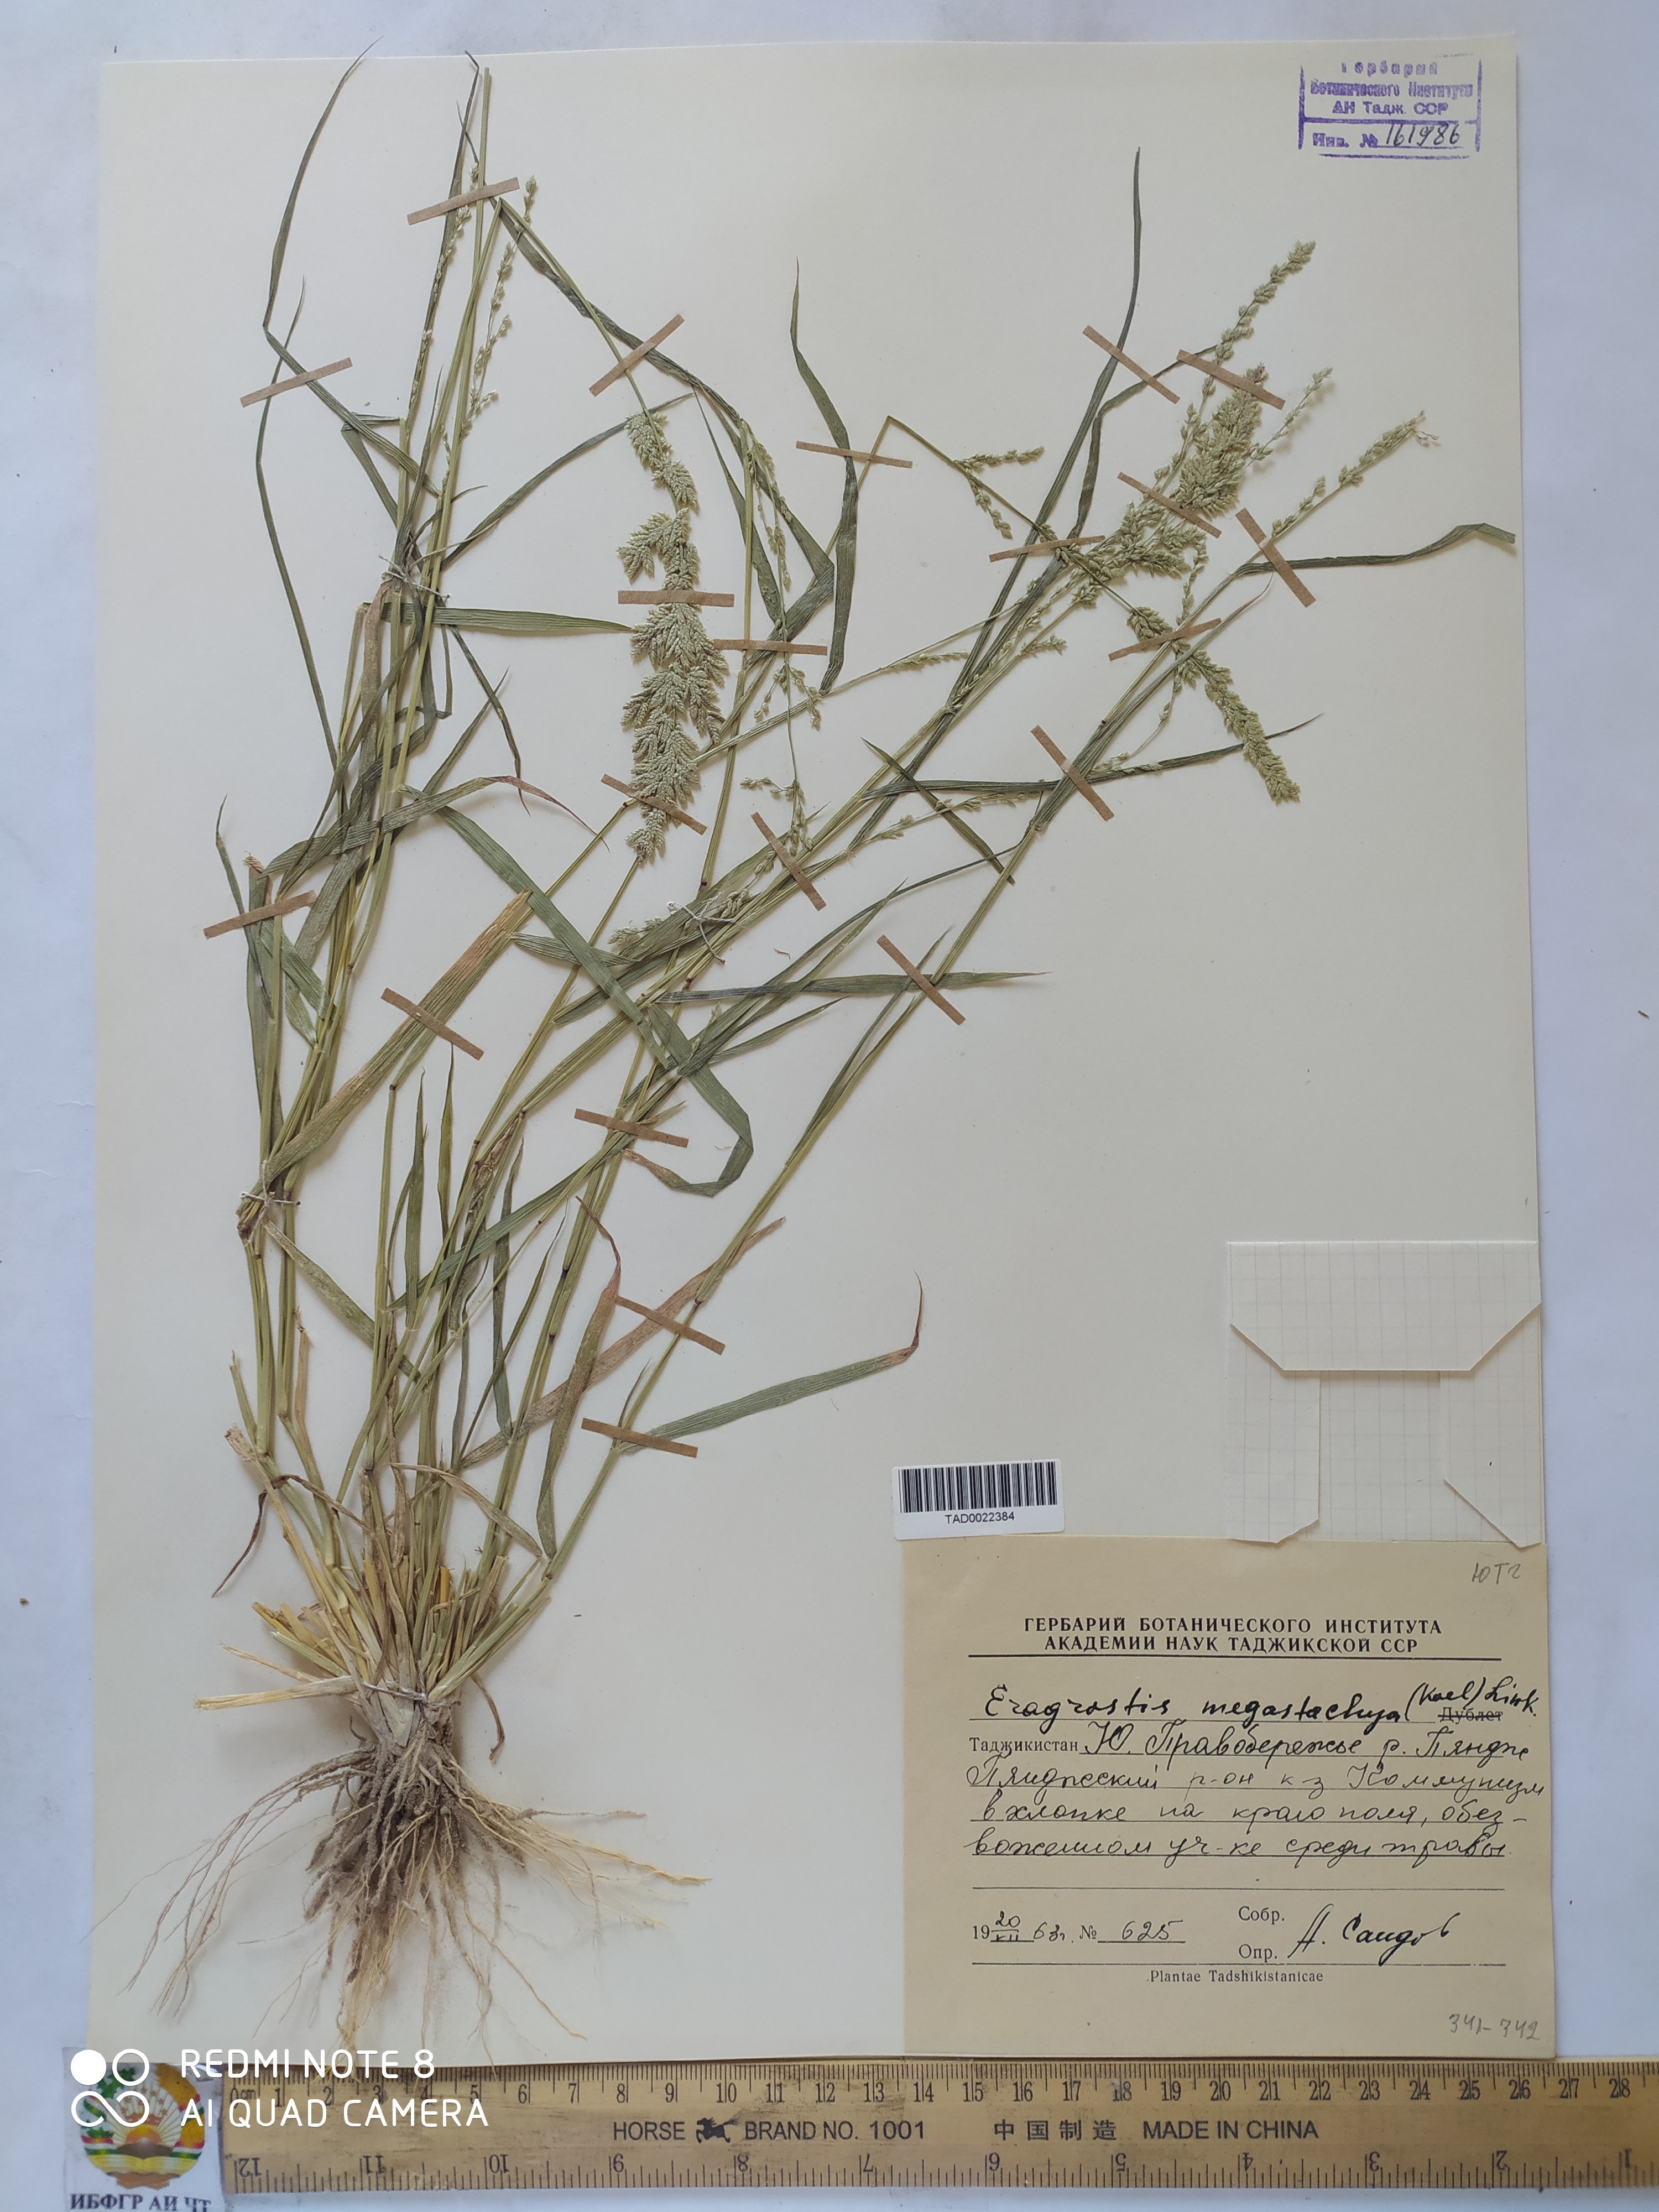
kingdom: Plantae
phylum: Tracheophyta
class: Liliopsida
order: Poales
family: Poaceae
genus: Eragrostis
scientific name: Eragrostis cilianensis
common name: Stinkgrass
